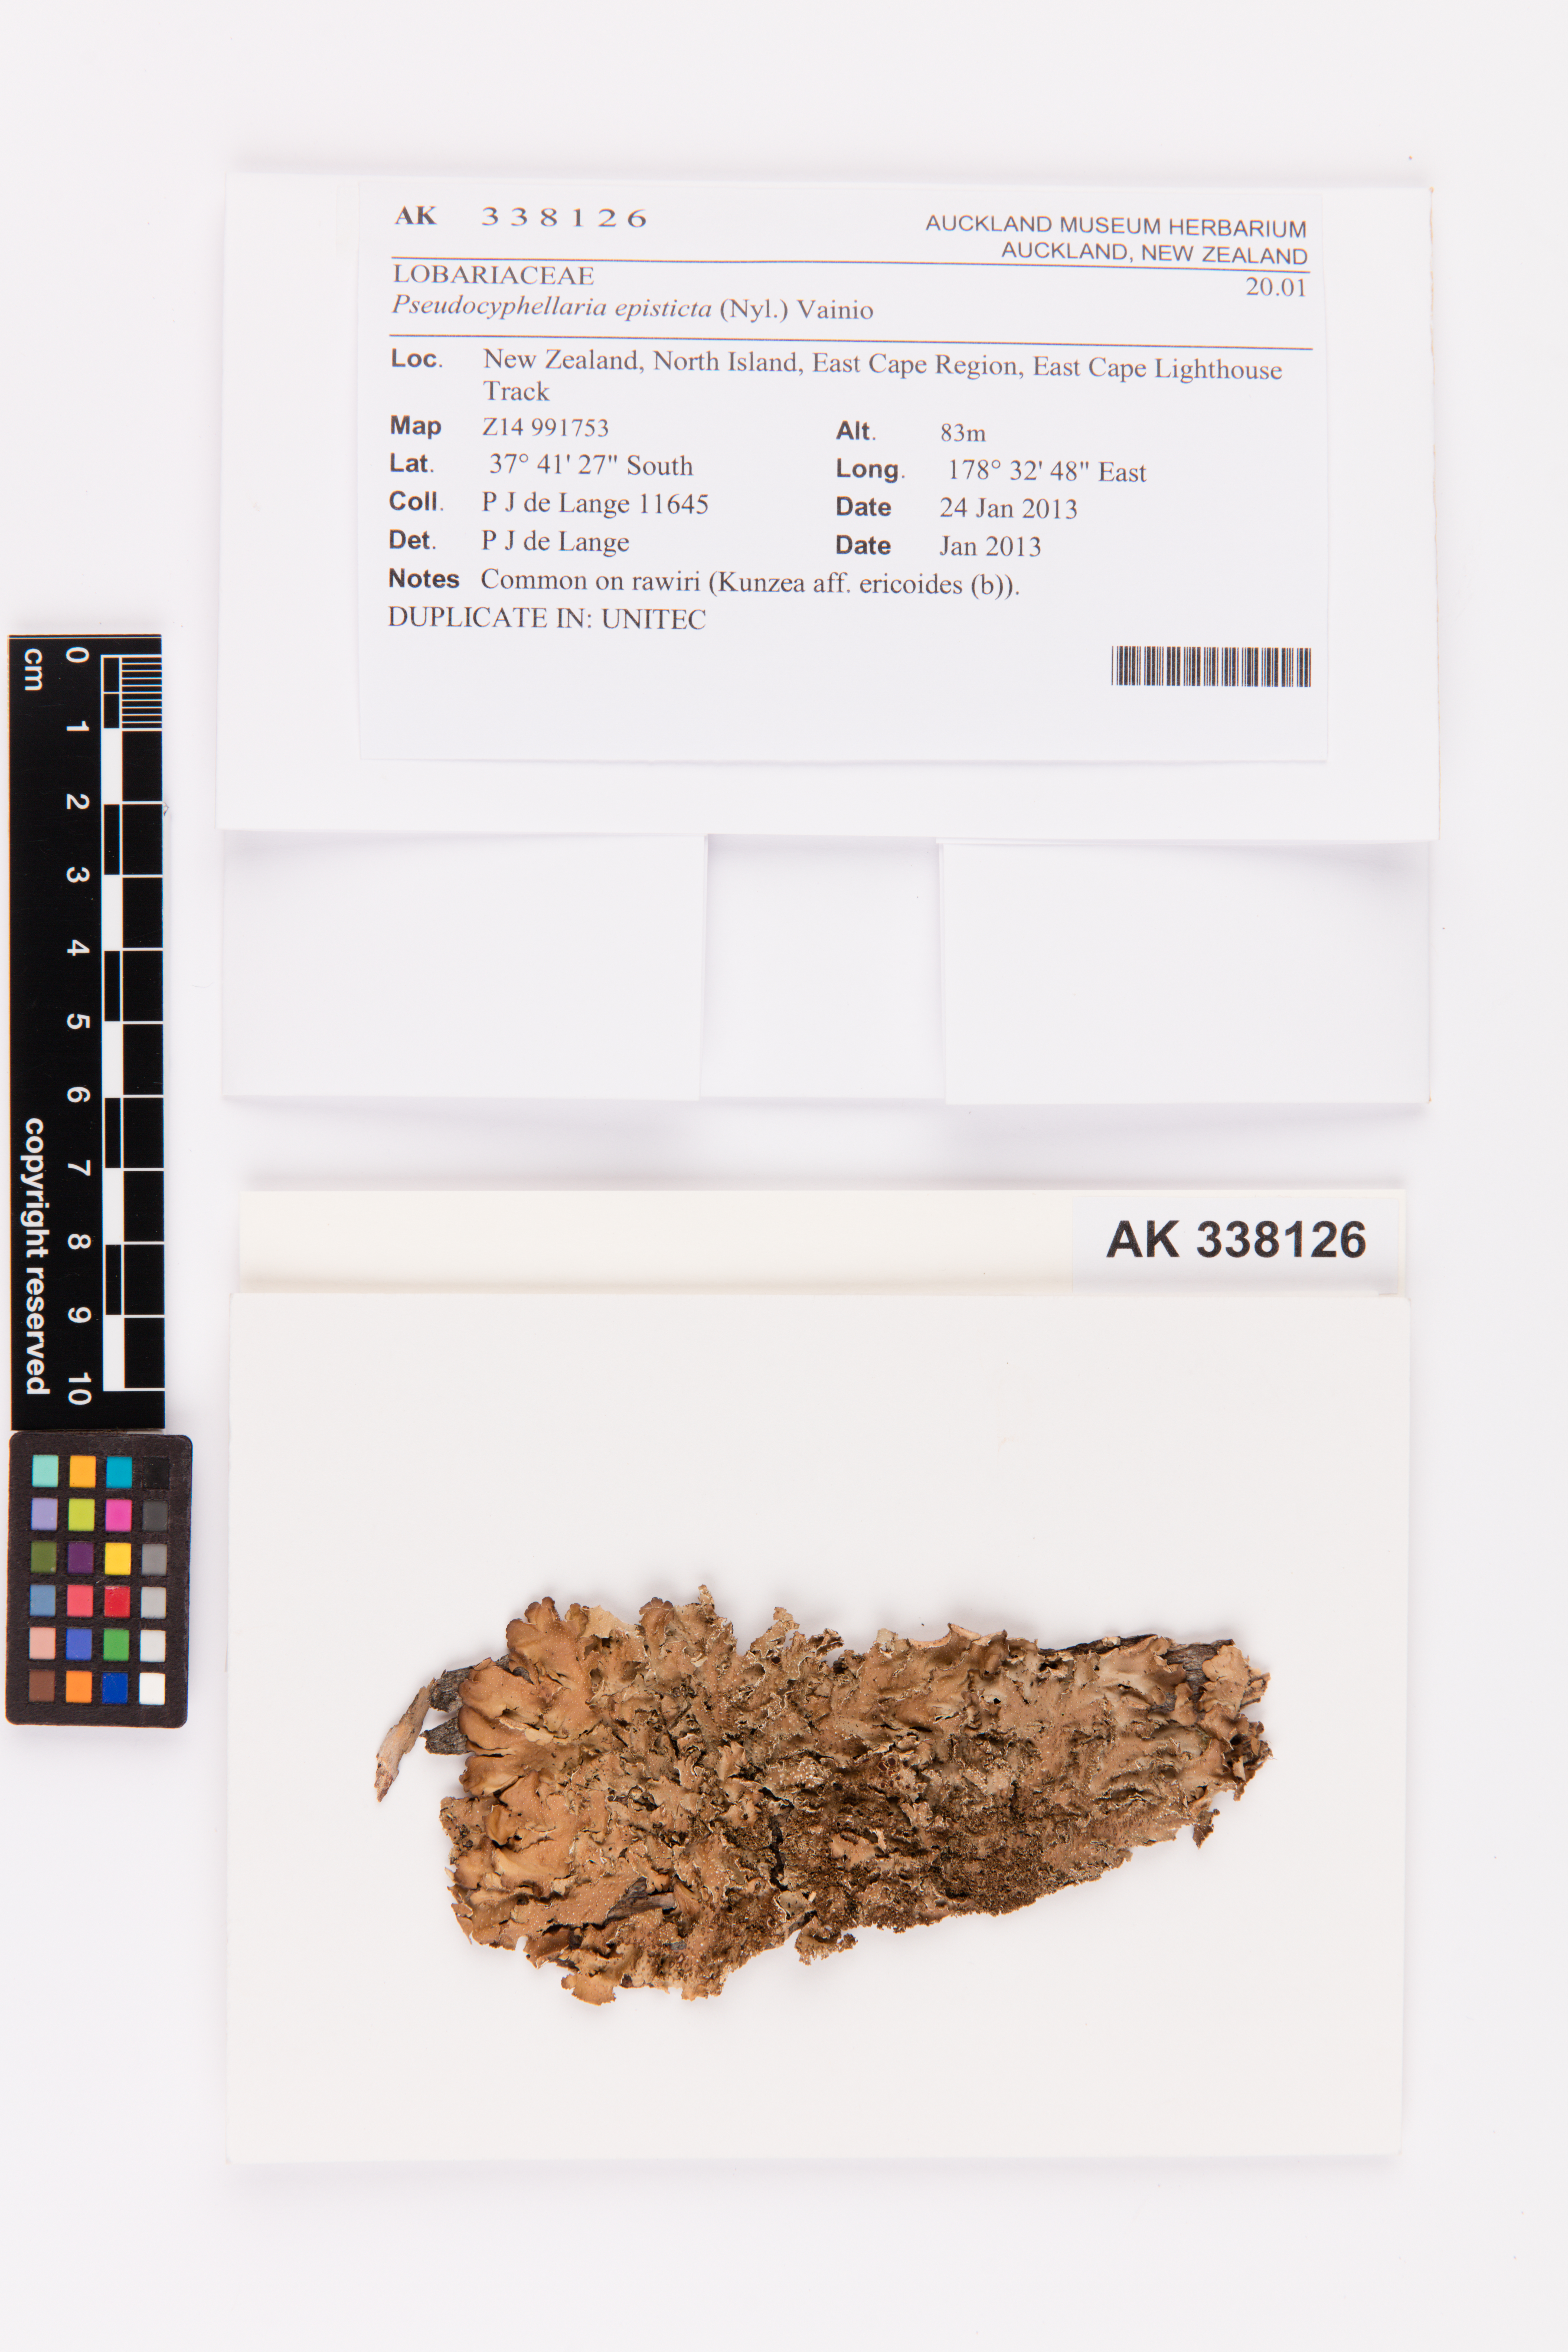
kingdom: Fungi
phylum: Ascomycota
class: Lecanoromycetes
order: Peltigerales
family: Lobariaceae
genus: Pseudocyphellaria
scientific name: Pseudocyphellaria episticta
